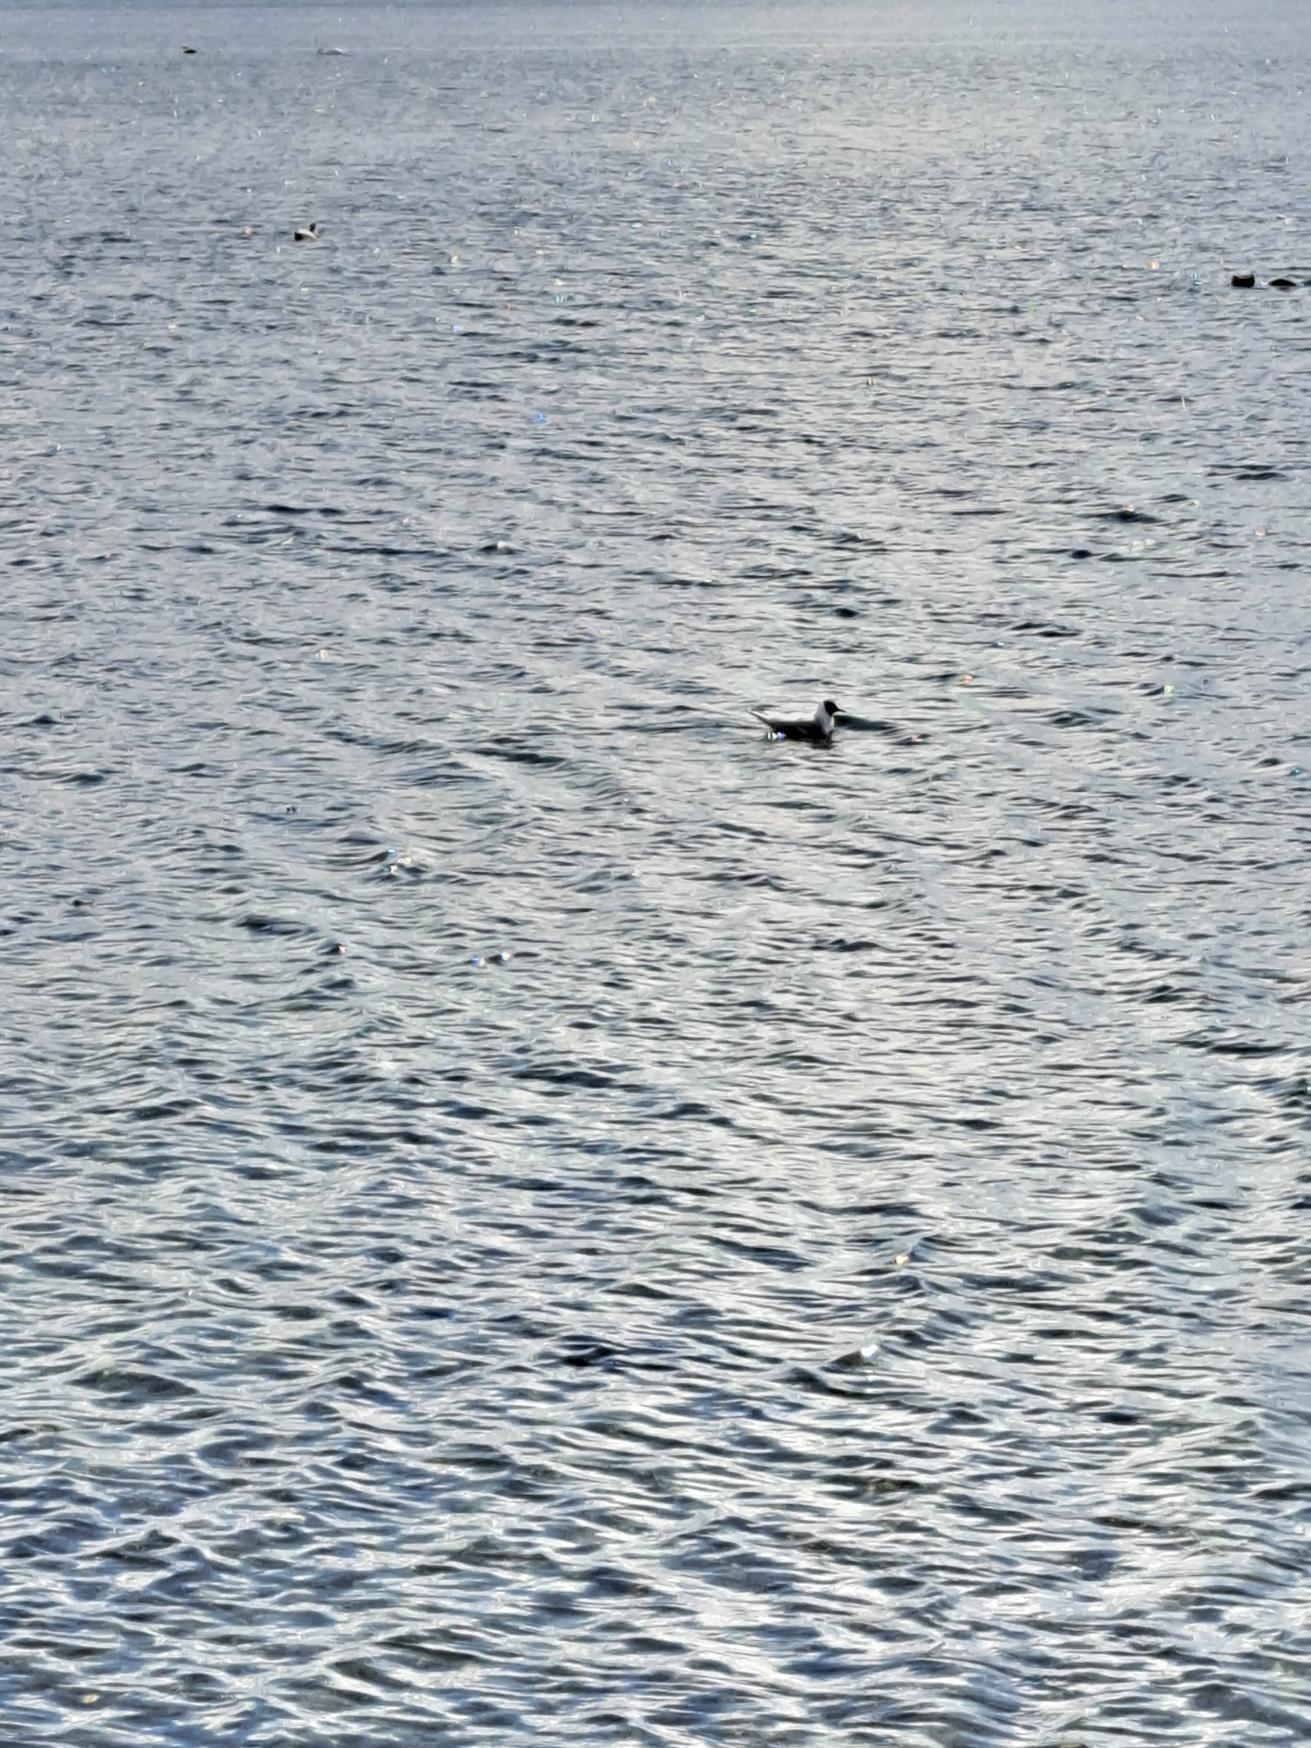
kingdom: Animalia
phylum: Chordata
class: Aves
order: Charadriiformes
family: Laridae
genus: Chroicocephalus
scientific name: Chroicocephalus ridibundus
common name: Hættemåge
